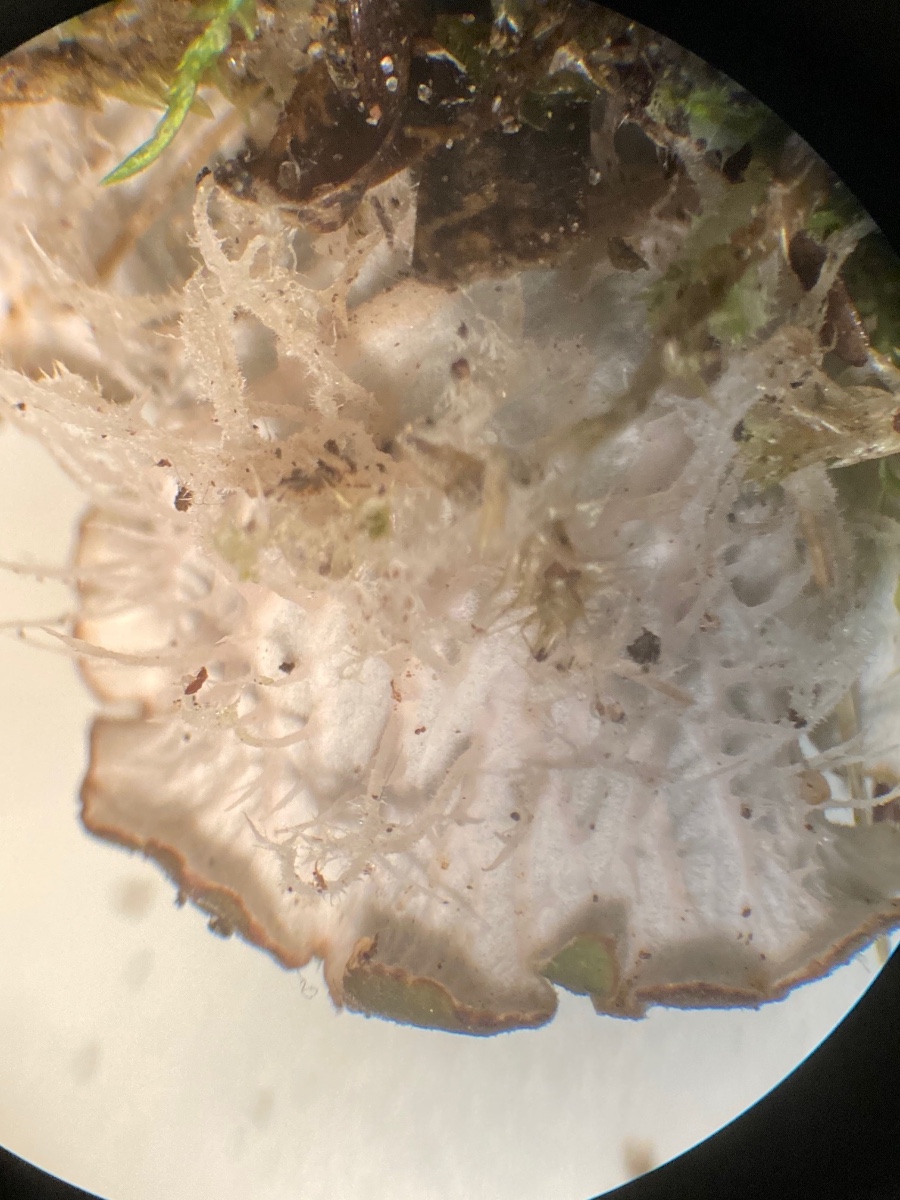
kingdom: Fungi
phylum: Ascomycota
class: Lecanoromycetes
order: Peltigerales
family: Peltigeraceae
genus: Peltigera
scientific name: Peltigera
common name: skjoldlav
